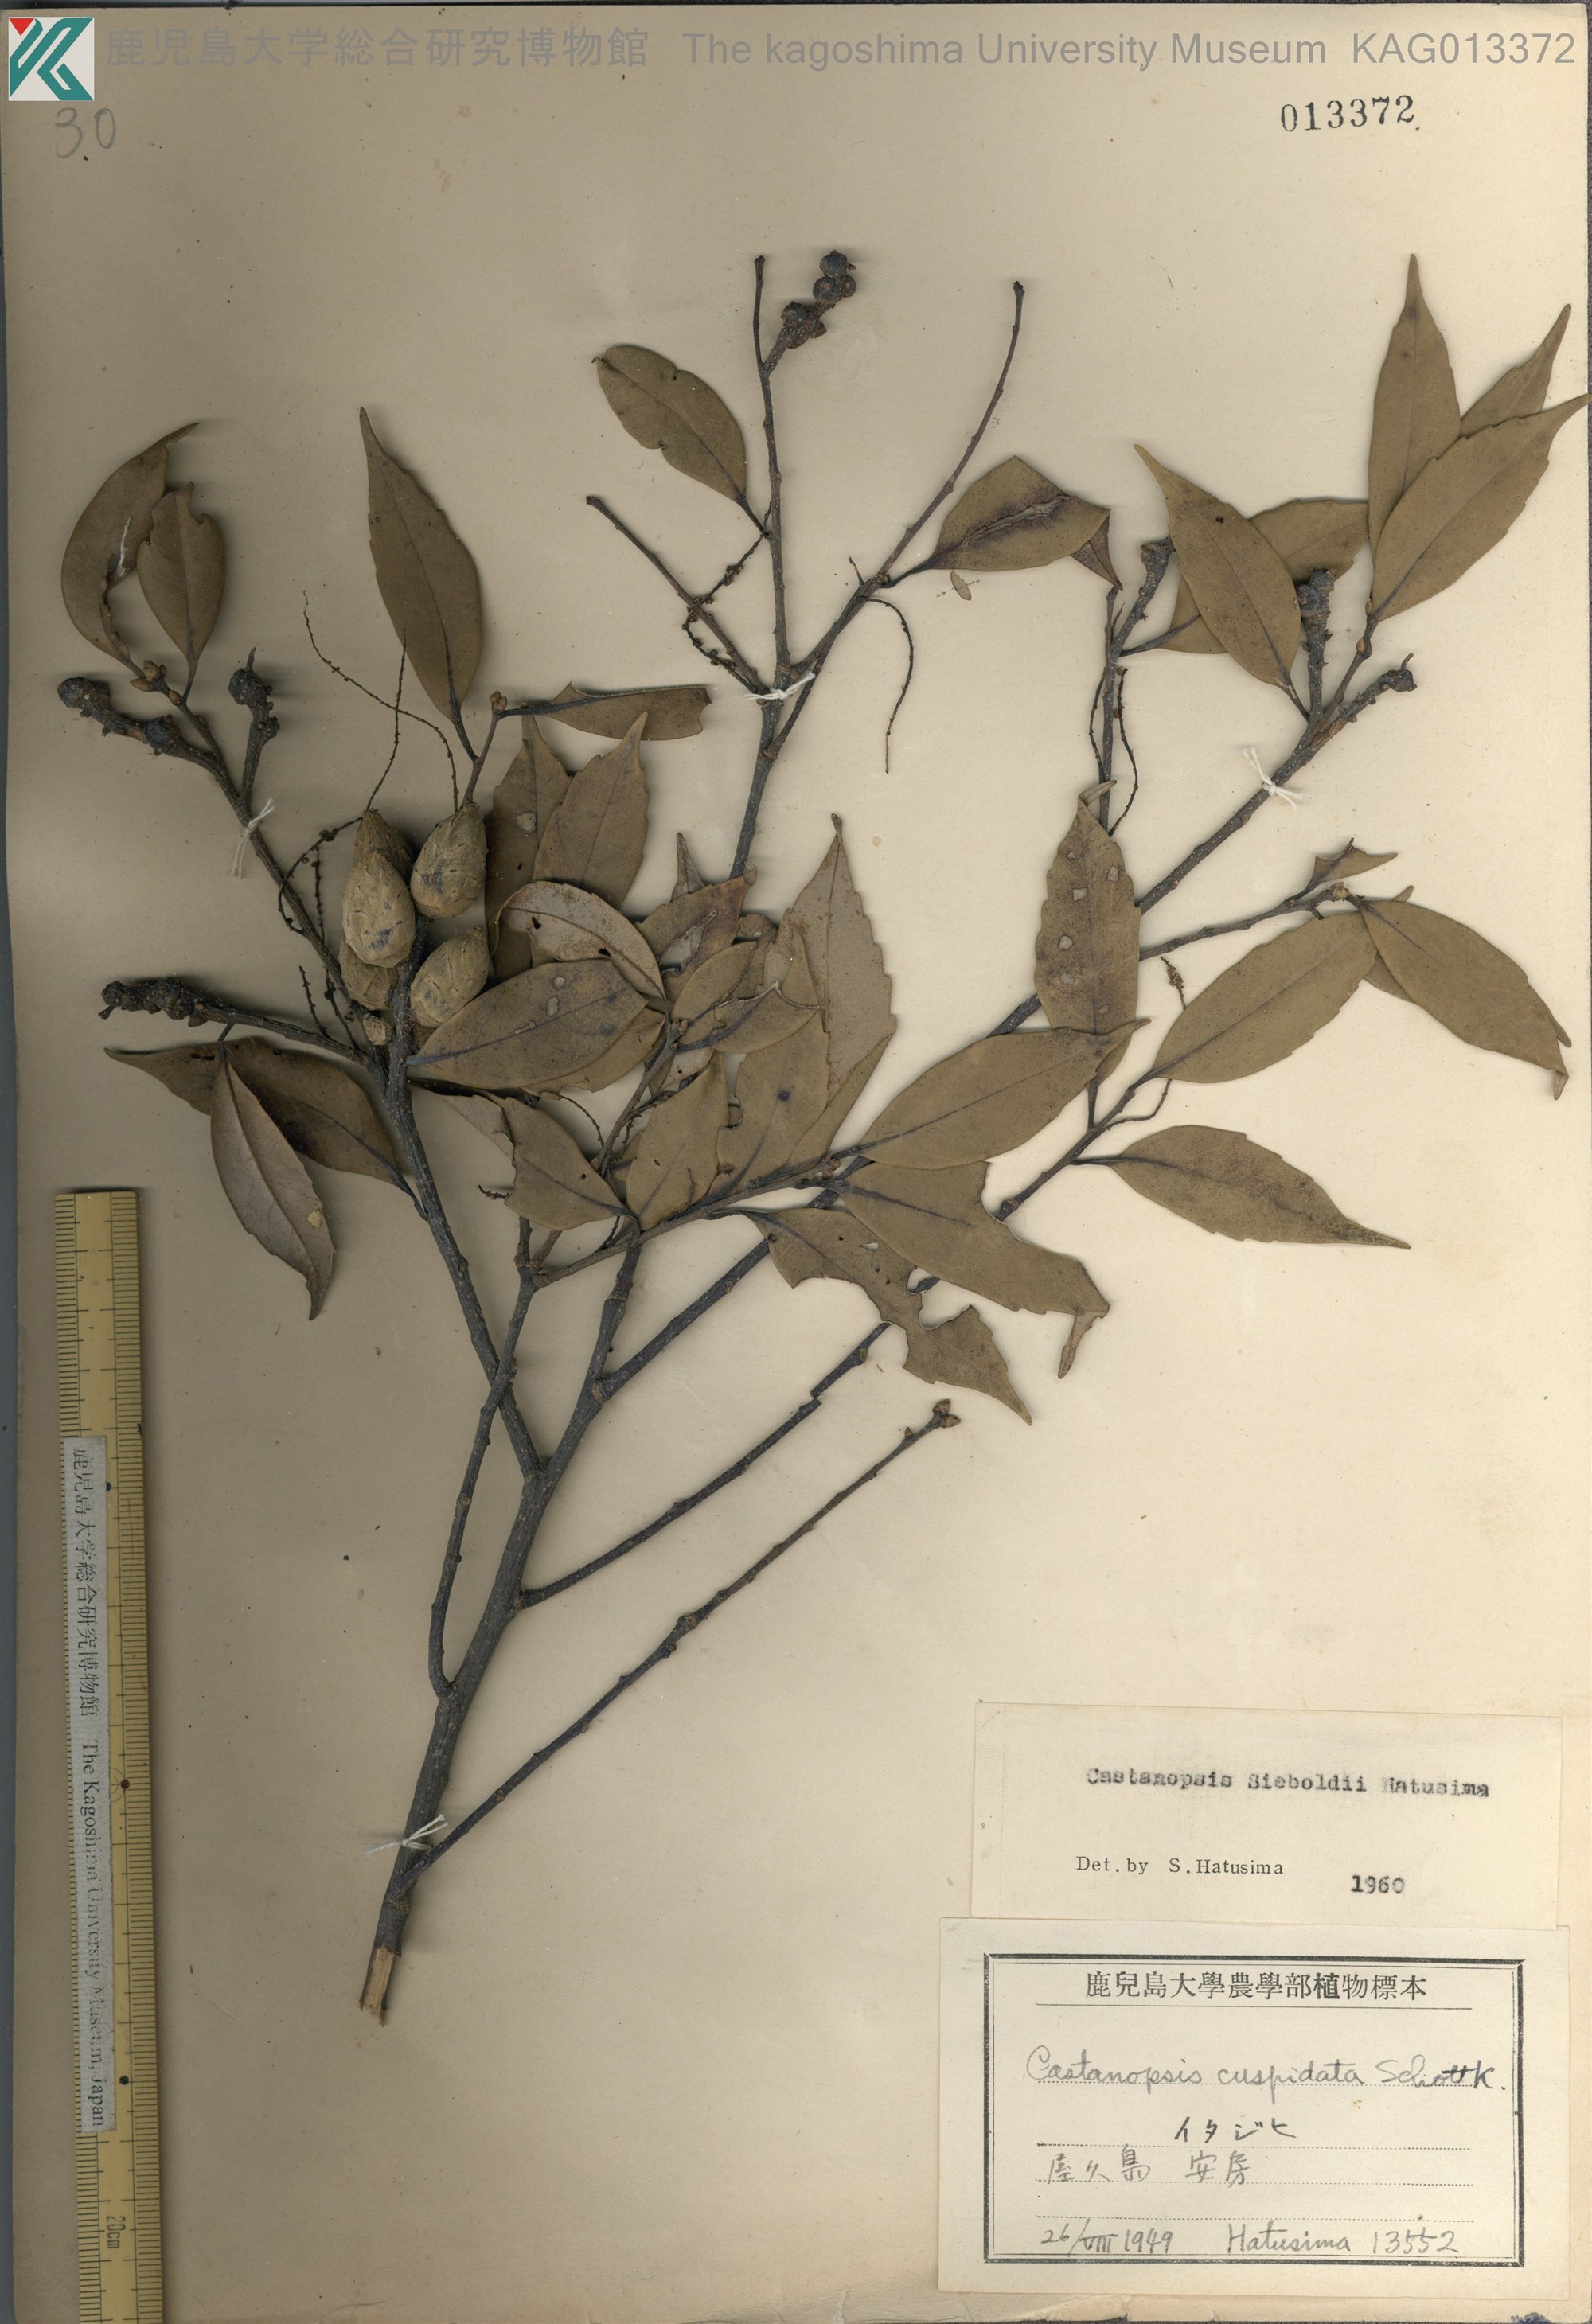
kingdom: Plantae
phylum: Tracheophyta
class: Magnoliopsida
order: Fagales
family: Fagaceae
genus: Castanopsis
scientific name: Castanopsis sieboldii
